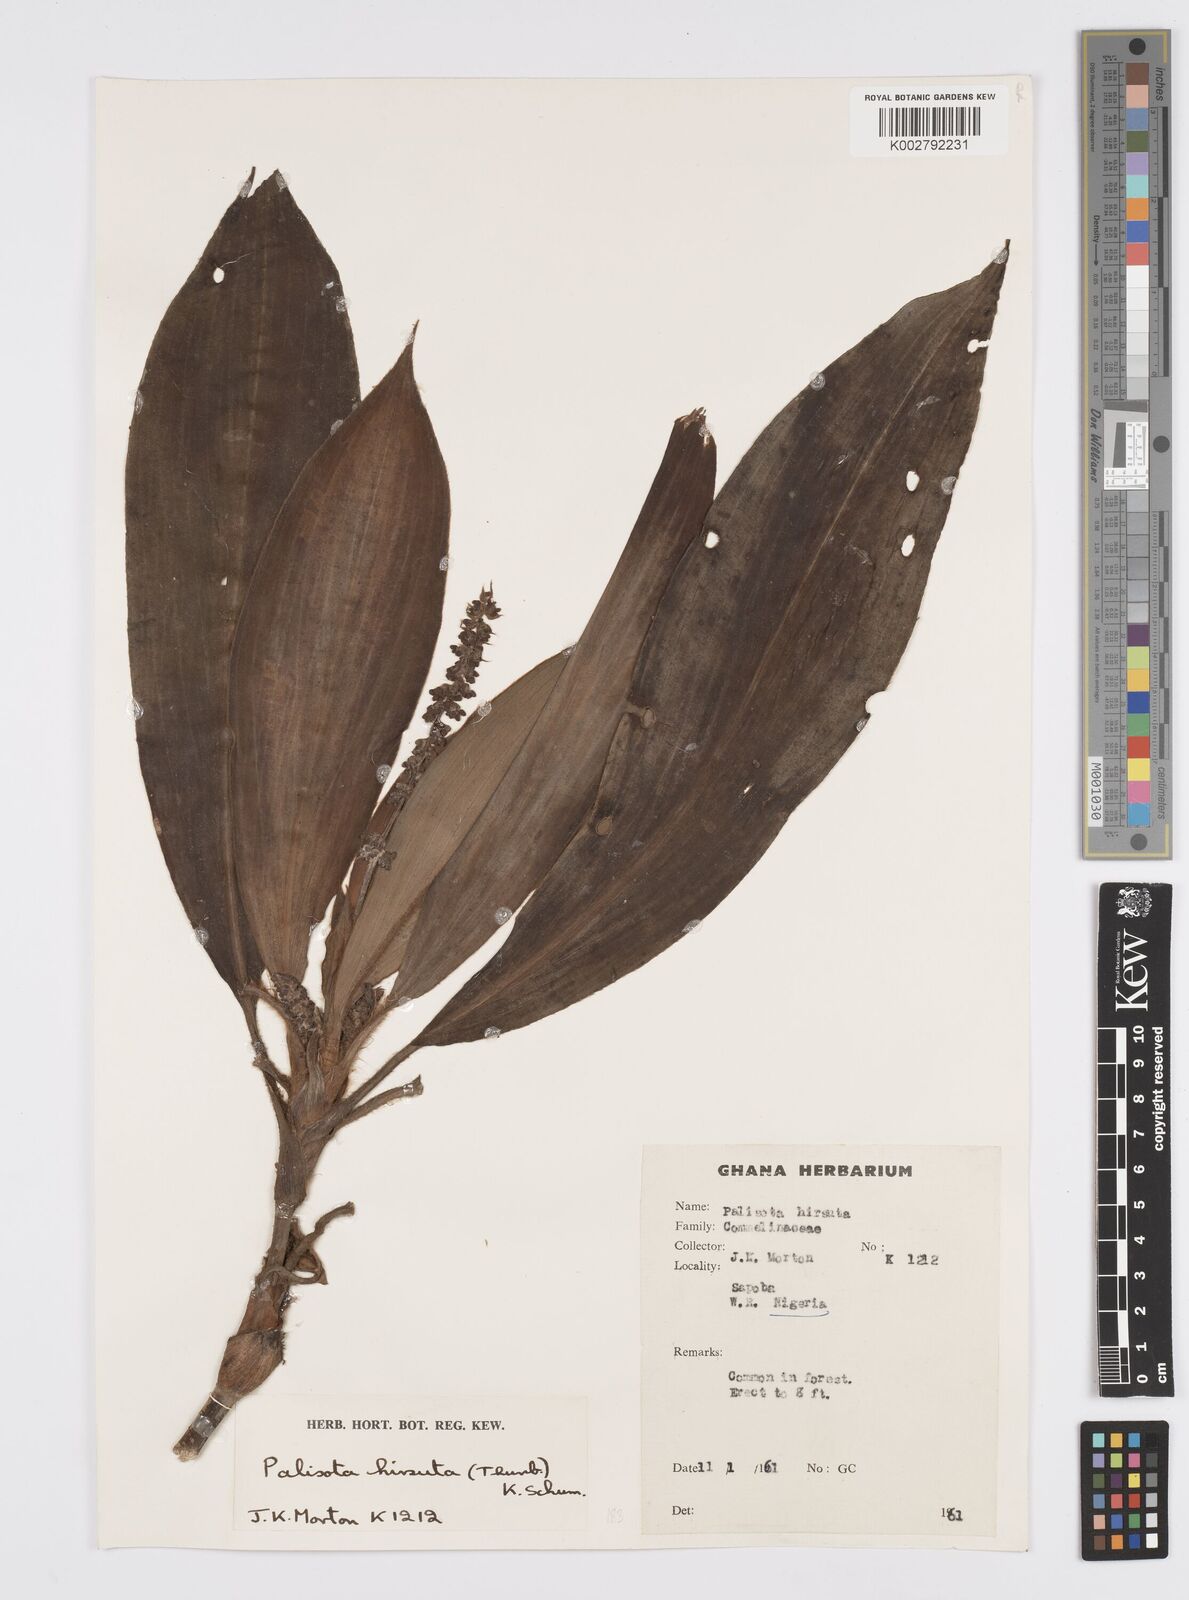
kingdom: Plantae
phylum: Tracheophyta
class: Liliopsida
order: Commelinales
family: Commelinaceae
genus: Palisota
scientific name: Palisota hirsuta
